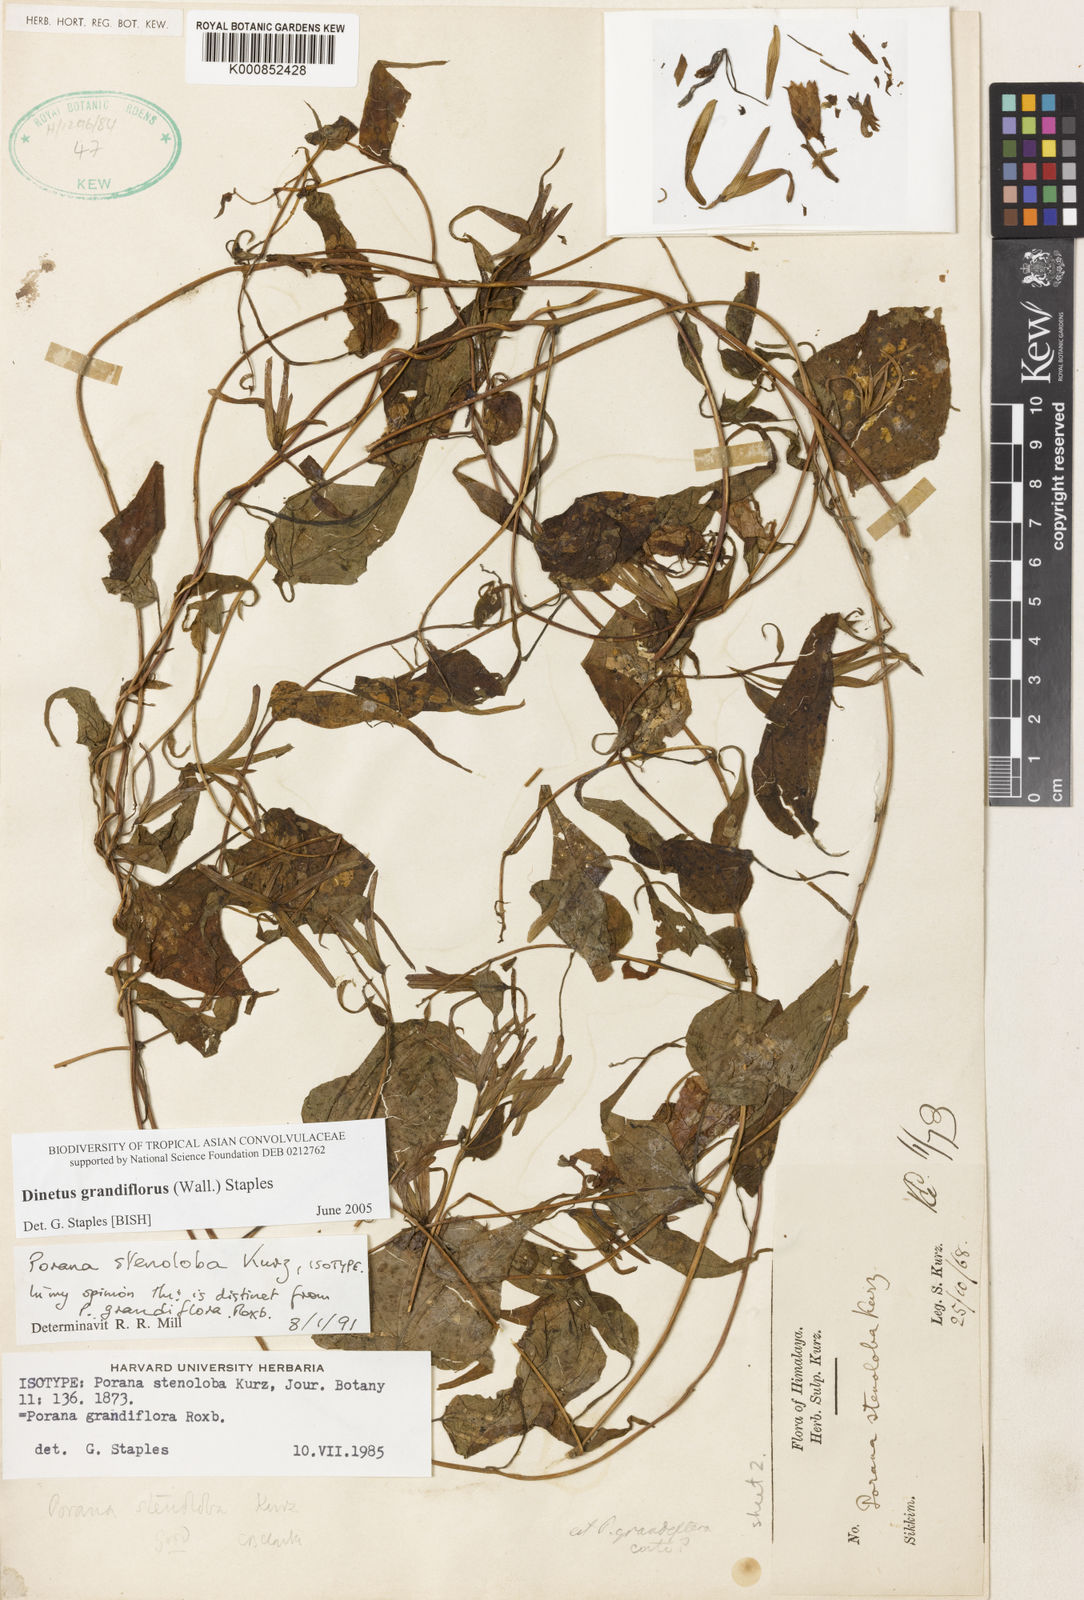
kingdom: Plantae
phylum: Tracheophyta
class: Magnoliopsida
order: Solanales
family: Convolvulaceae
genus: Porana
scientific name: Porana
